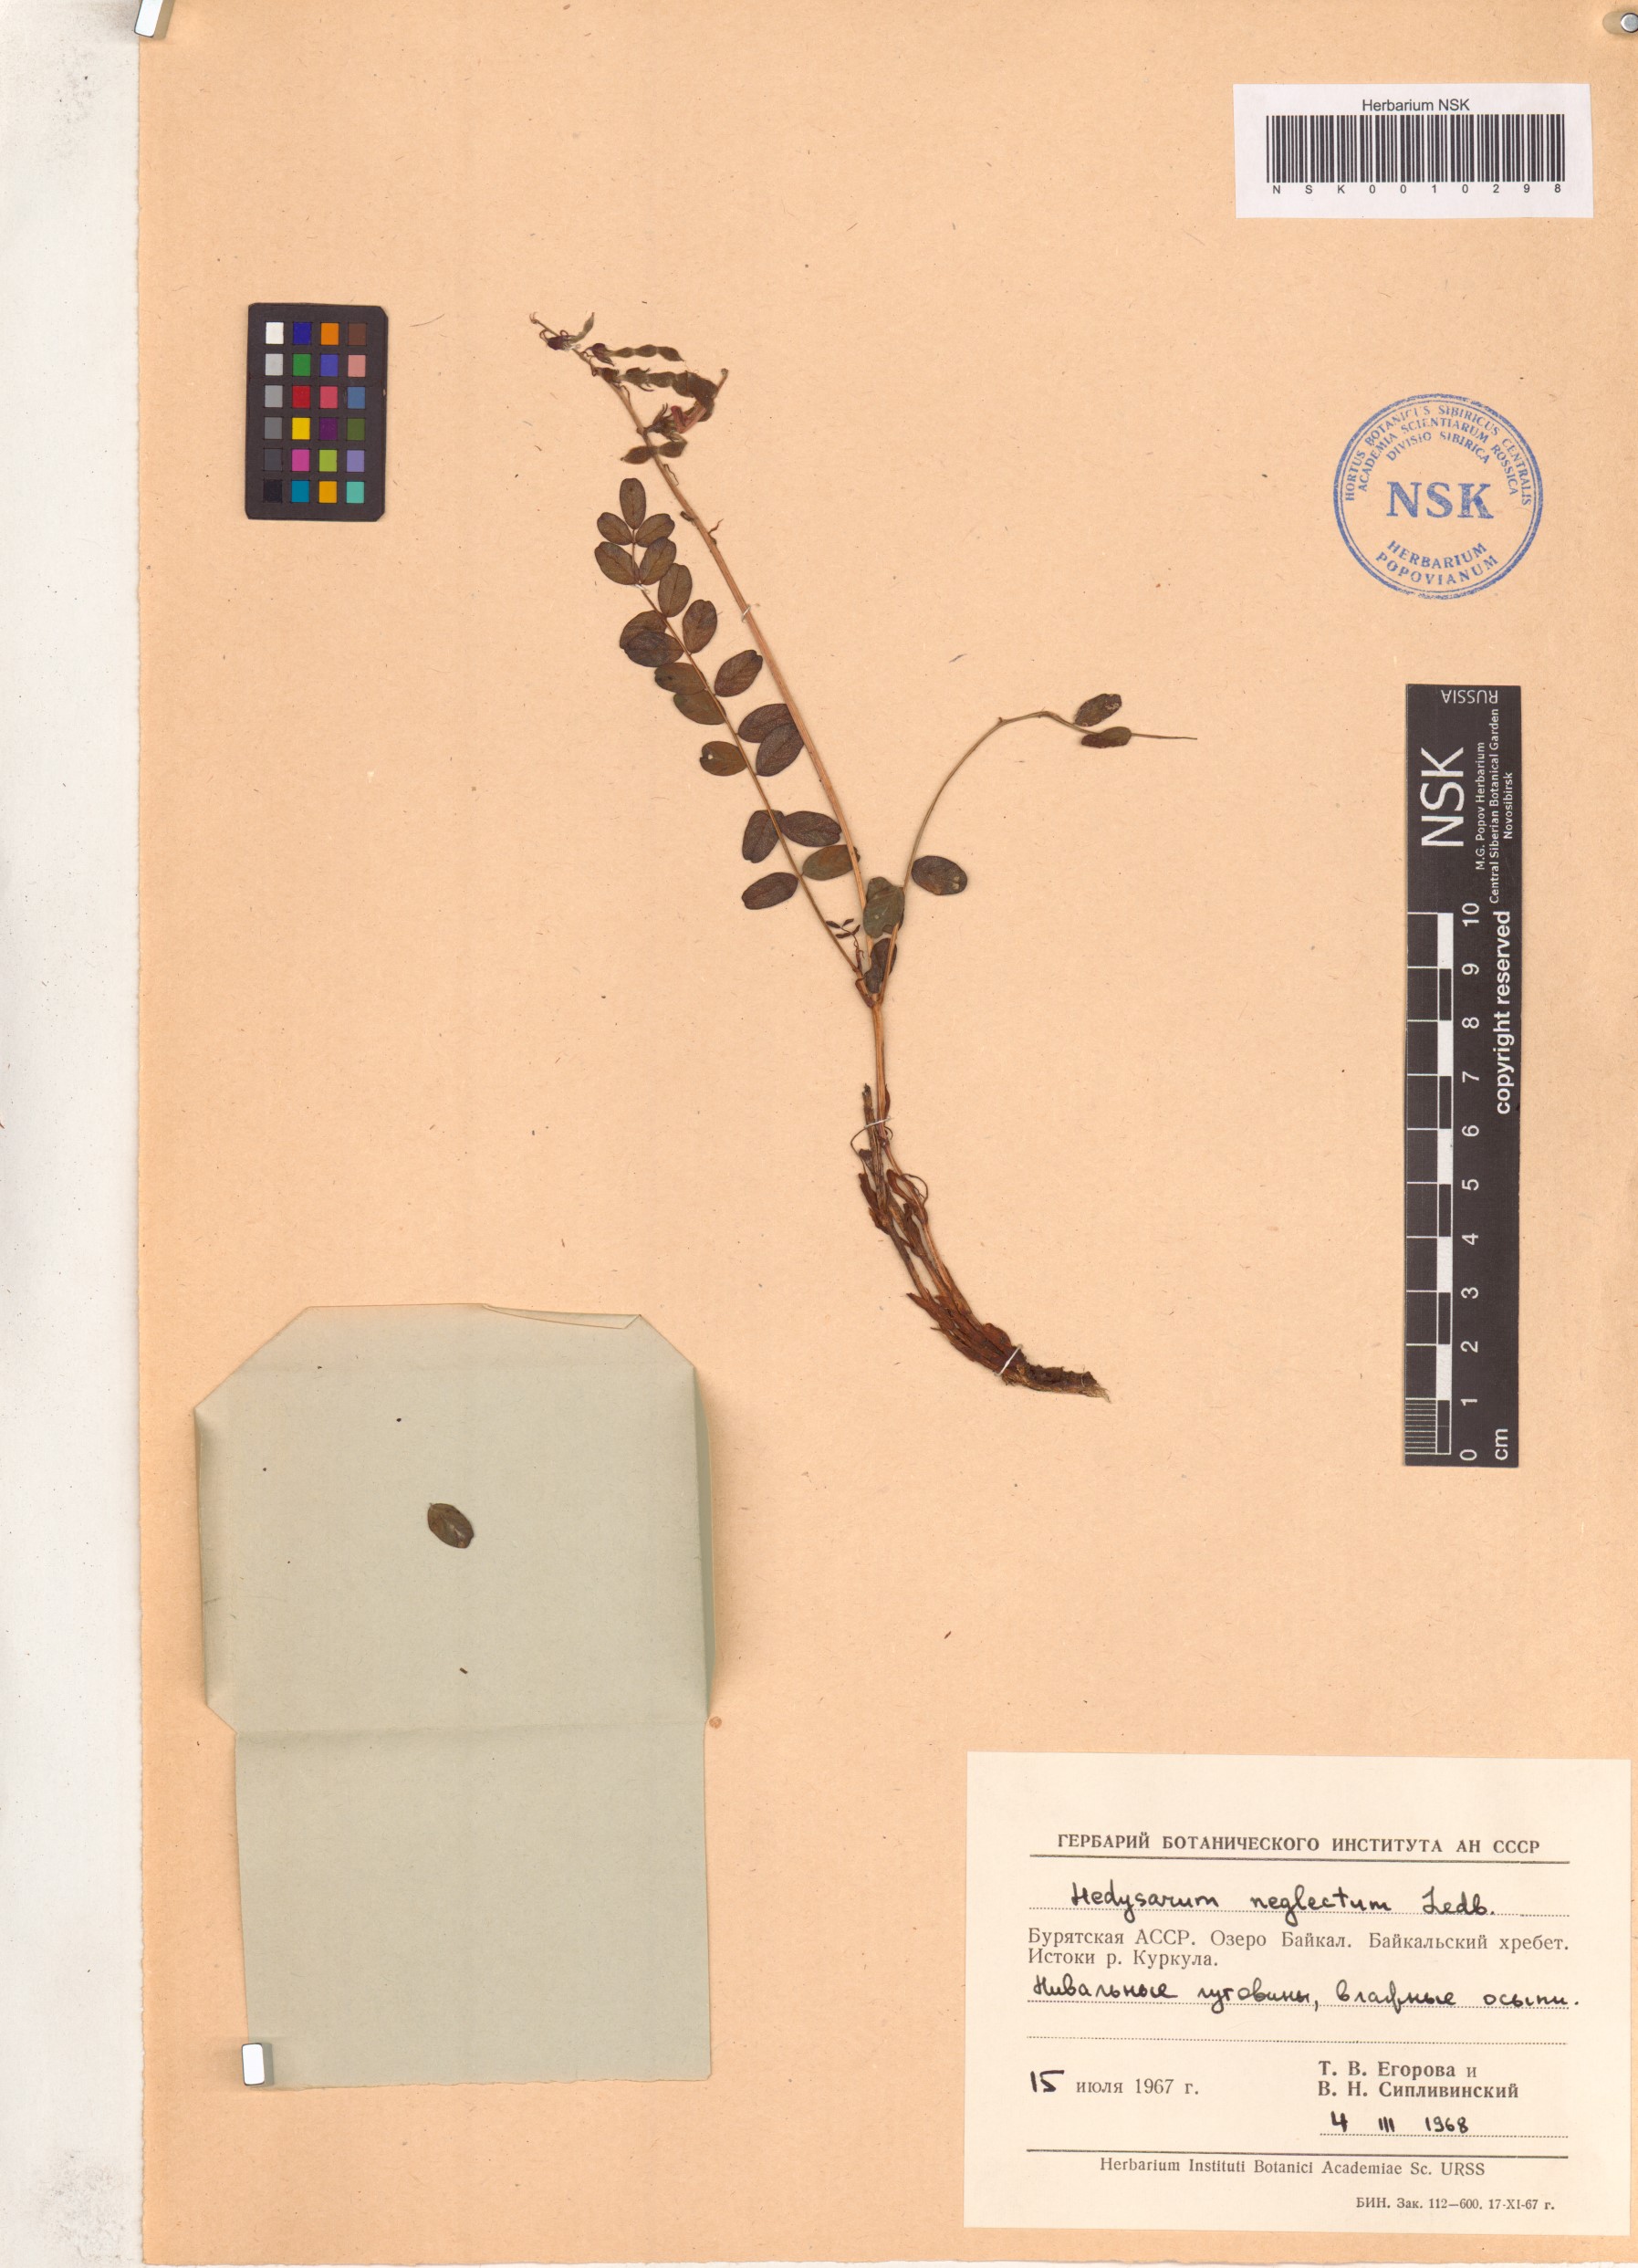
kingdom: Plantae
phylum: Tracheophyta
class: Magnoliopsida
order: Fabales
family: Fabaceae
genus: Hedysarum
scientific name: Hedysarum neglectum
